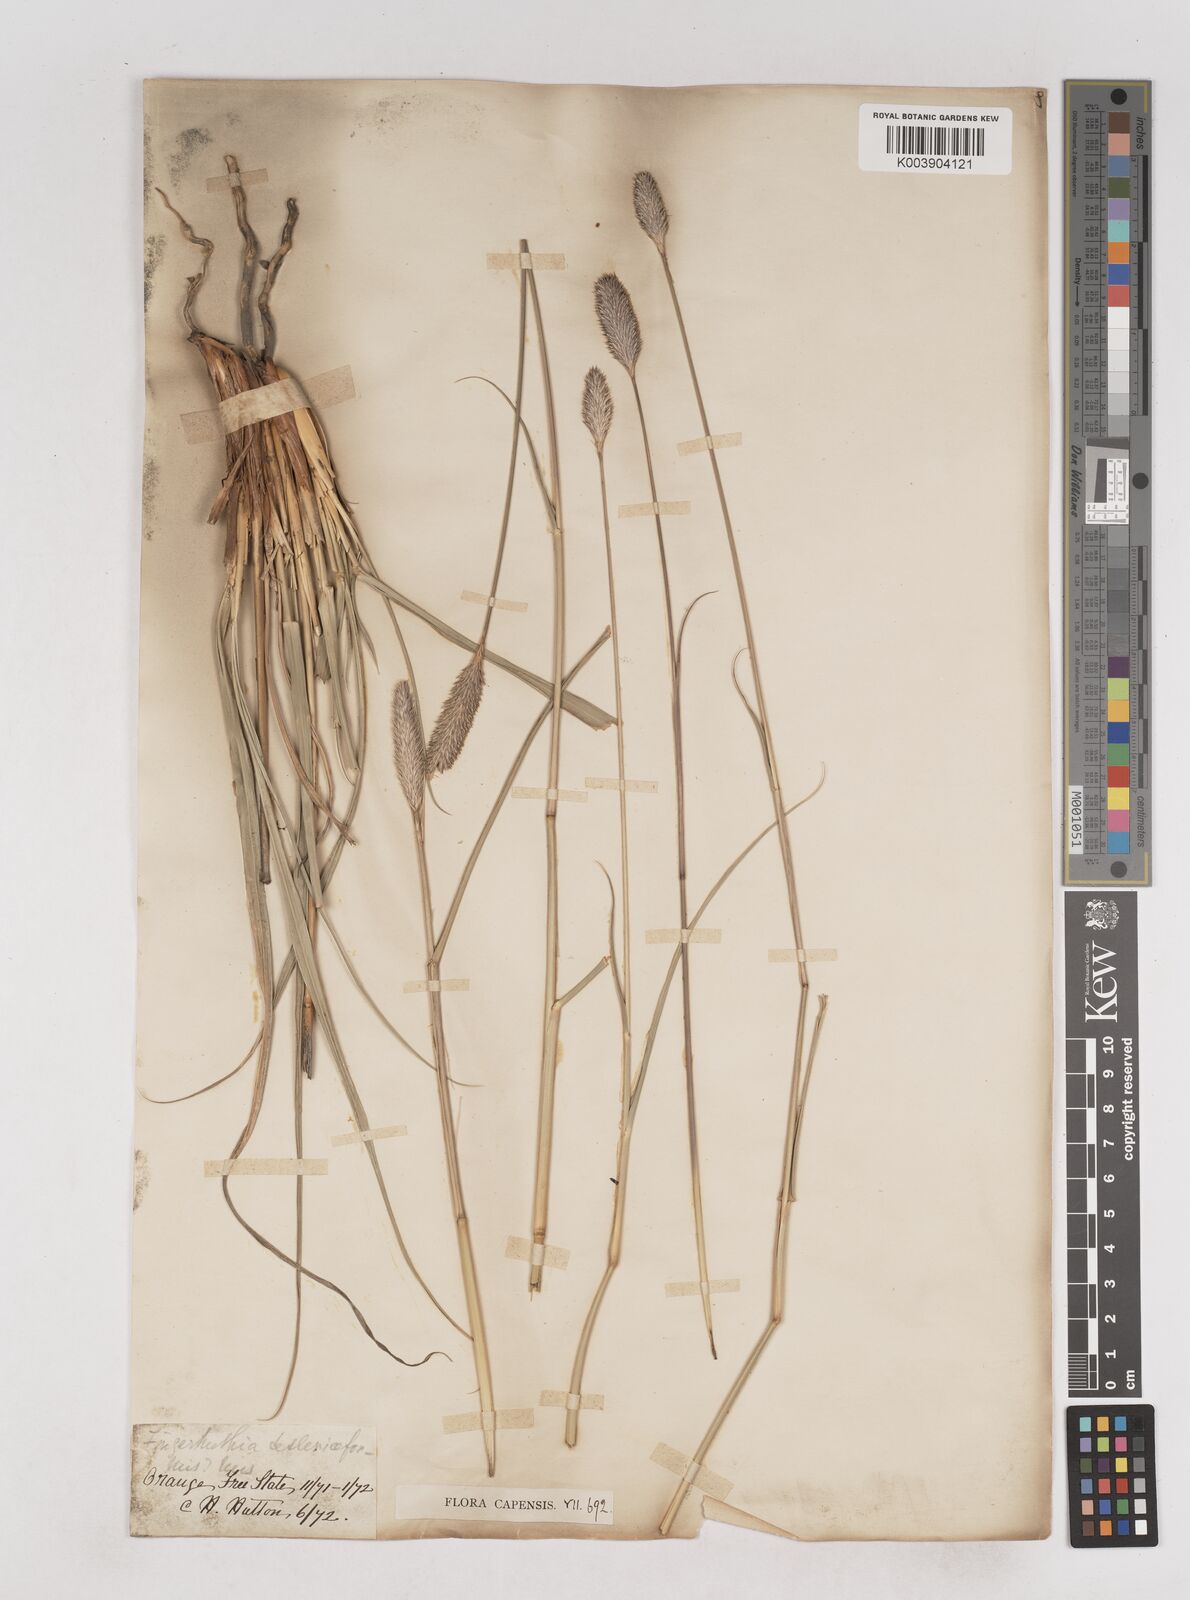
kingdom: Plantae
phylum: Tracheophyta
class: Liliopsida
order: Poales
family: Poaceae
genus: Fingerhuthia
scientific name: Fingerhuthia sesleriiformis
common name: Thimble grass
